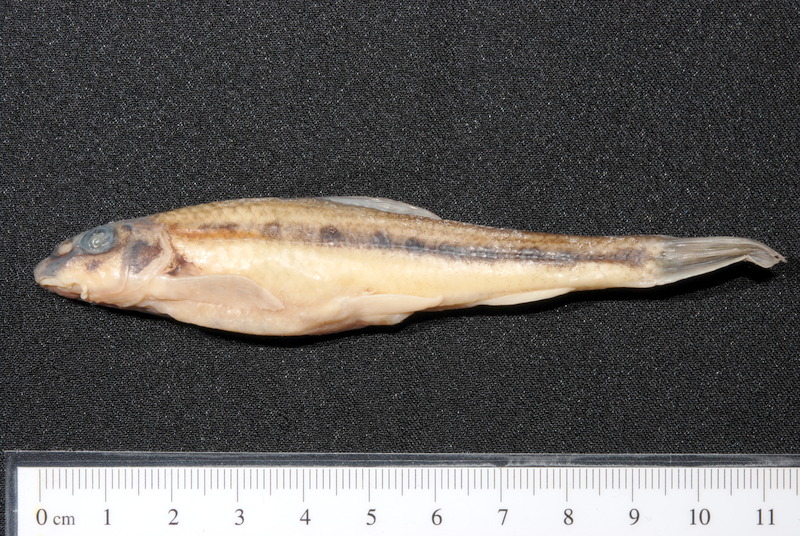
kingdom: Animalia
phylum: Chordata
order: Cypriniformes
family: Cyprinidae
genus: Romanogobio
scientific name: Romanogobio belingi
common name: Northern whitefin gudgeon
